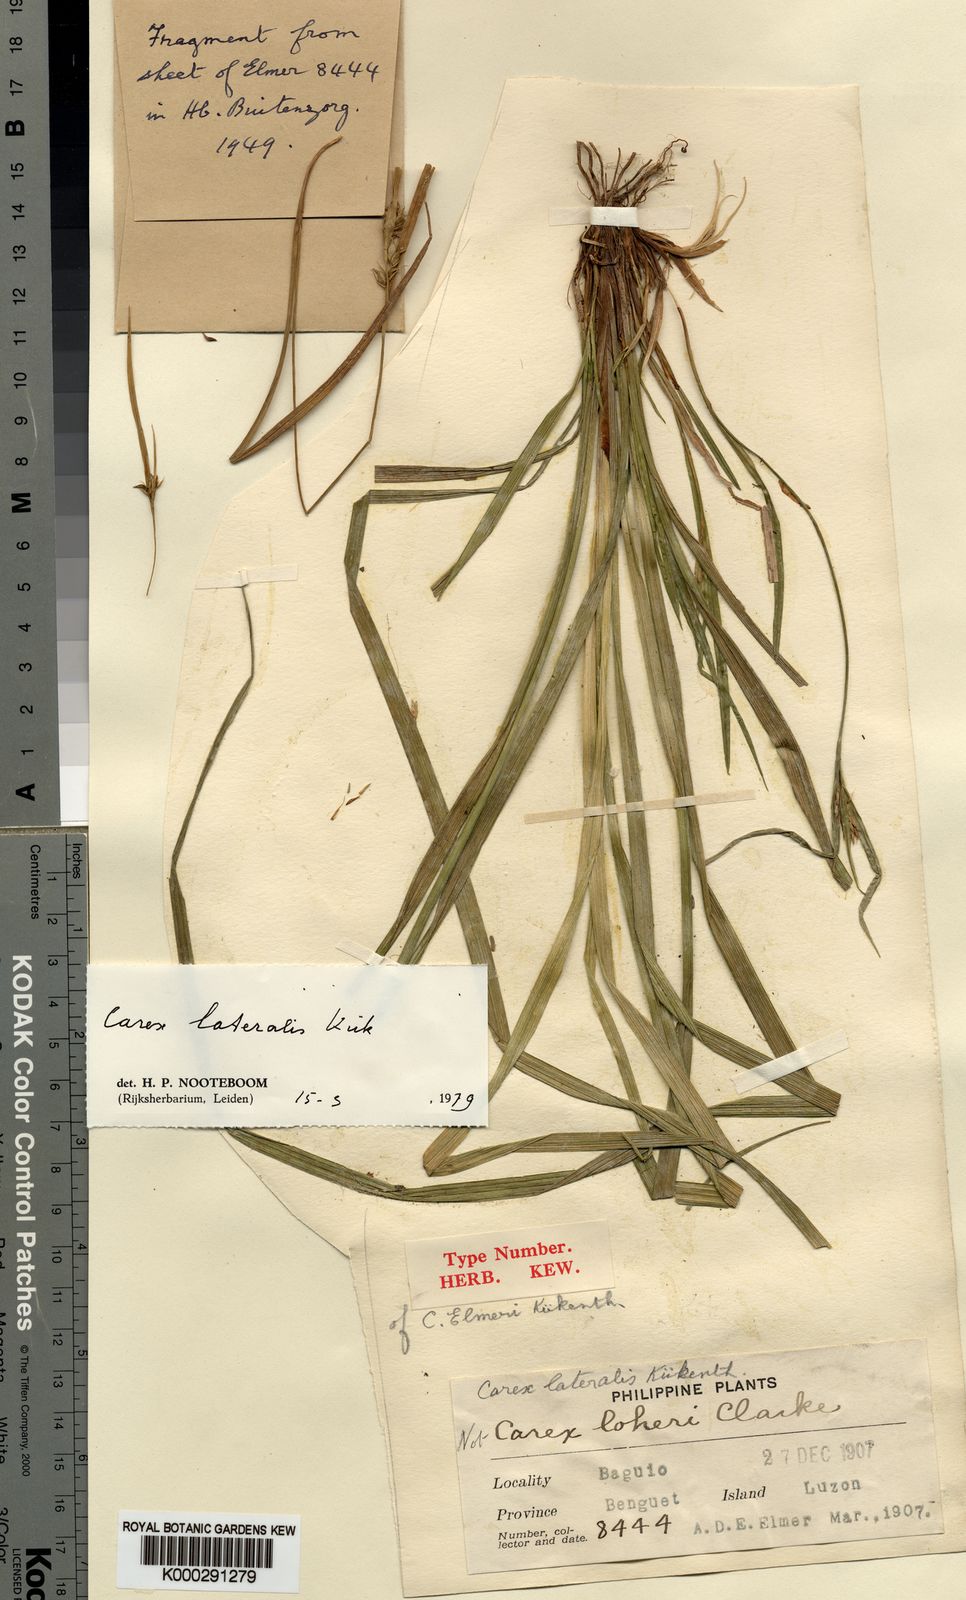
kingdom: Plantae
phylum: Tracheophyta
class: Liliopsida
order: Poales
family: Cyperaceae
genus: Carex
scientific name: Carex
